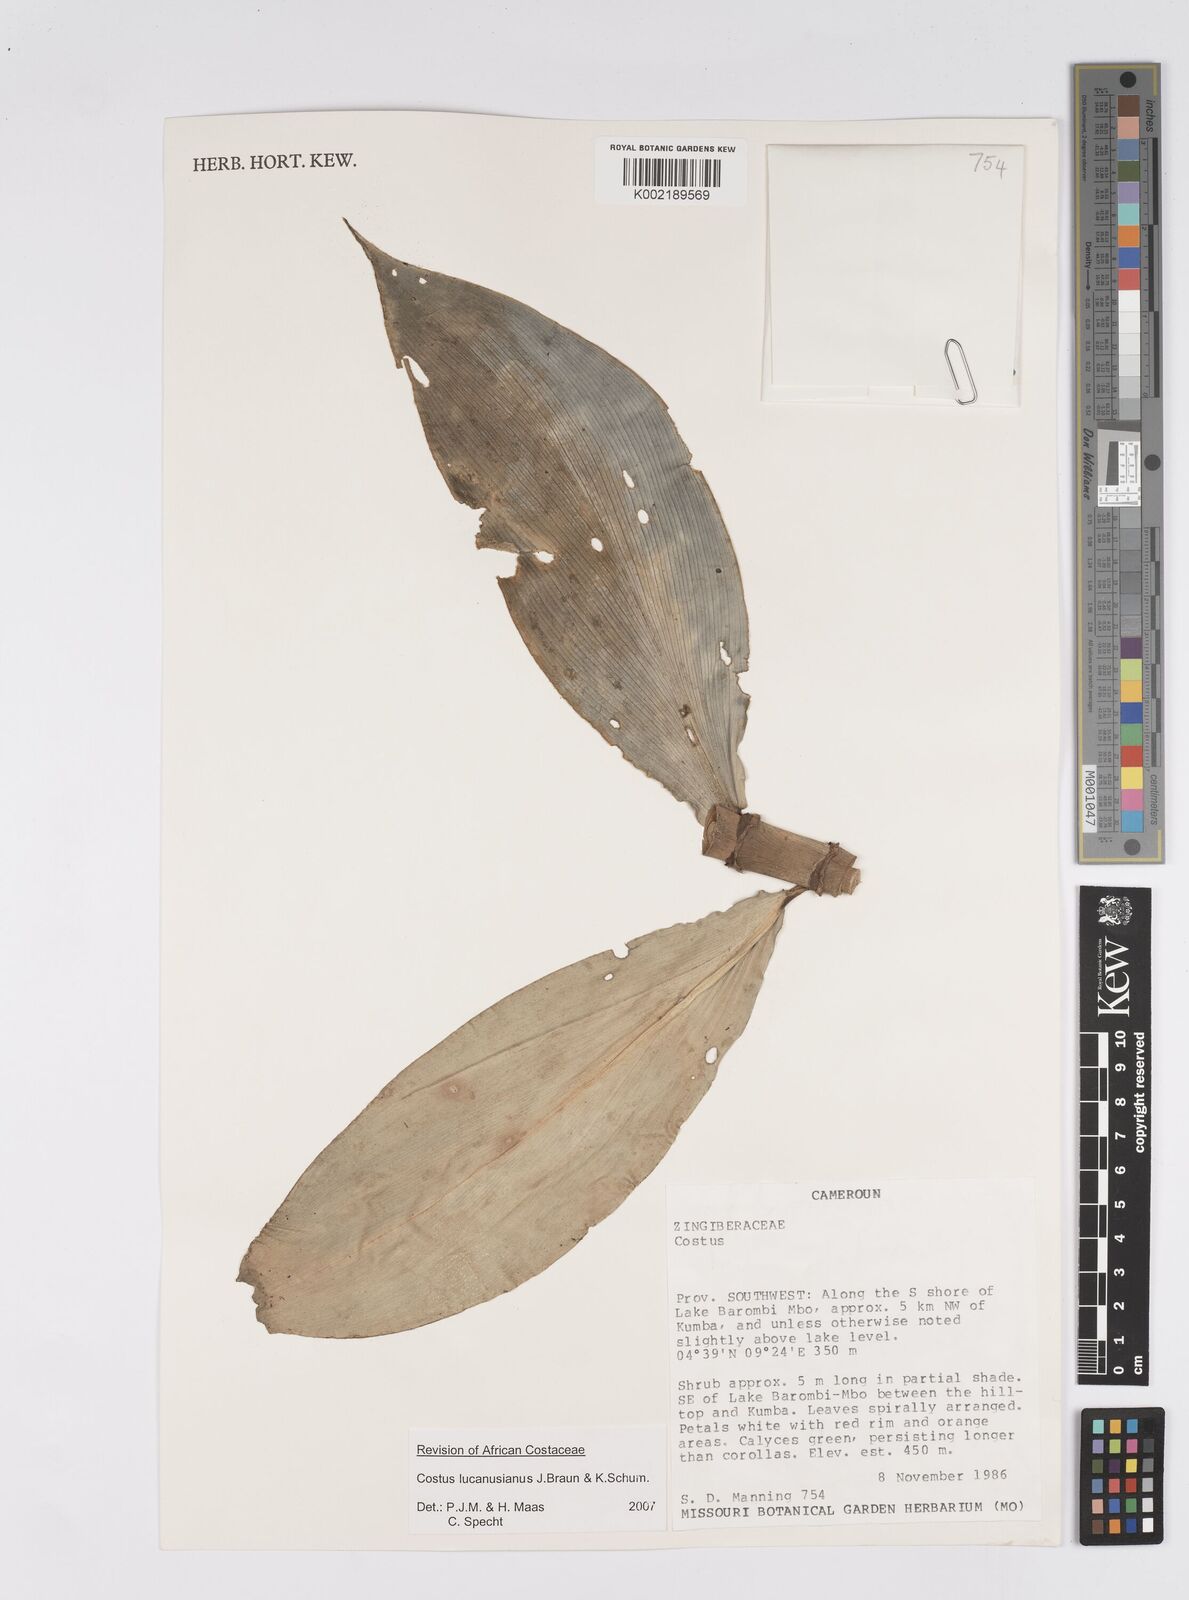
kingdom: Plantae
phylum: Tracheophyta
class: Liliopsida
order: Zingiberales
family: Costaceae
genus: Costus
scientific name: Costus lucanusianus
